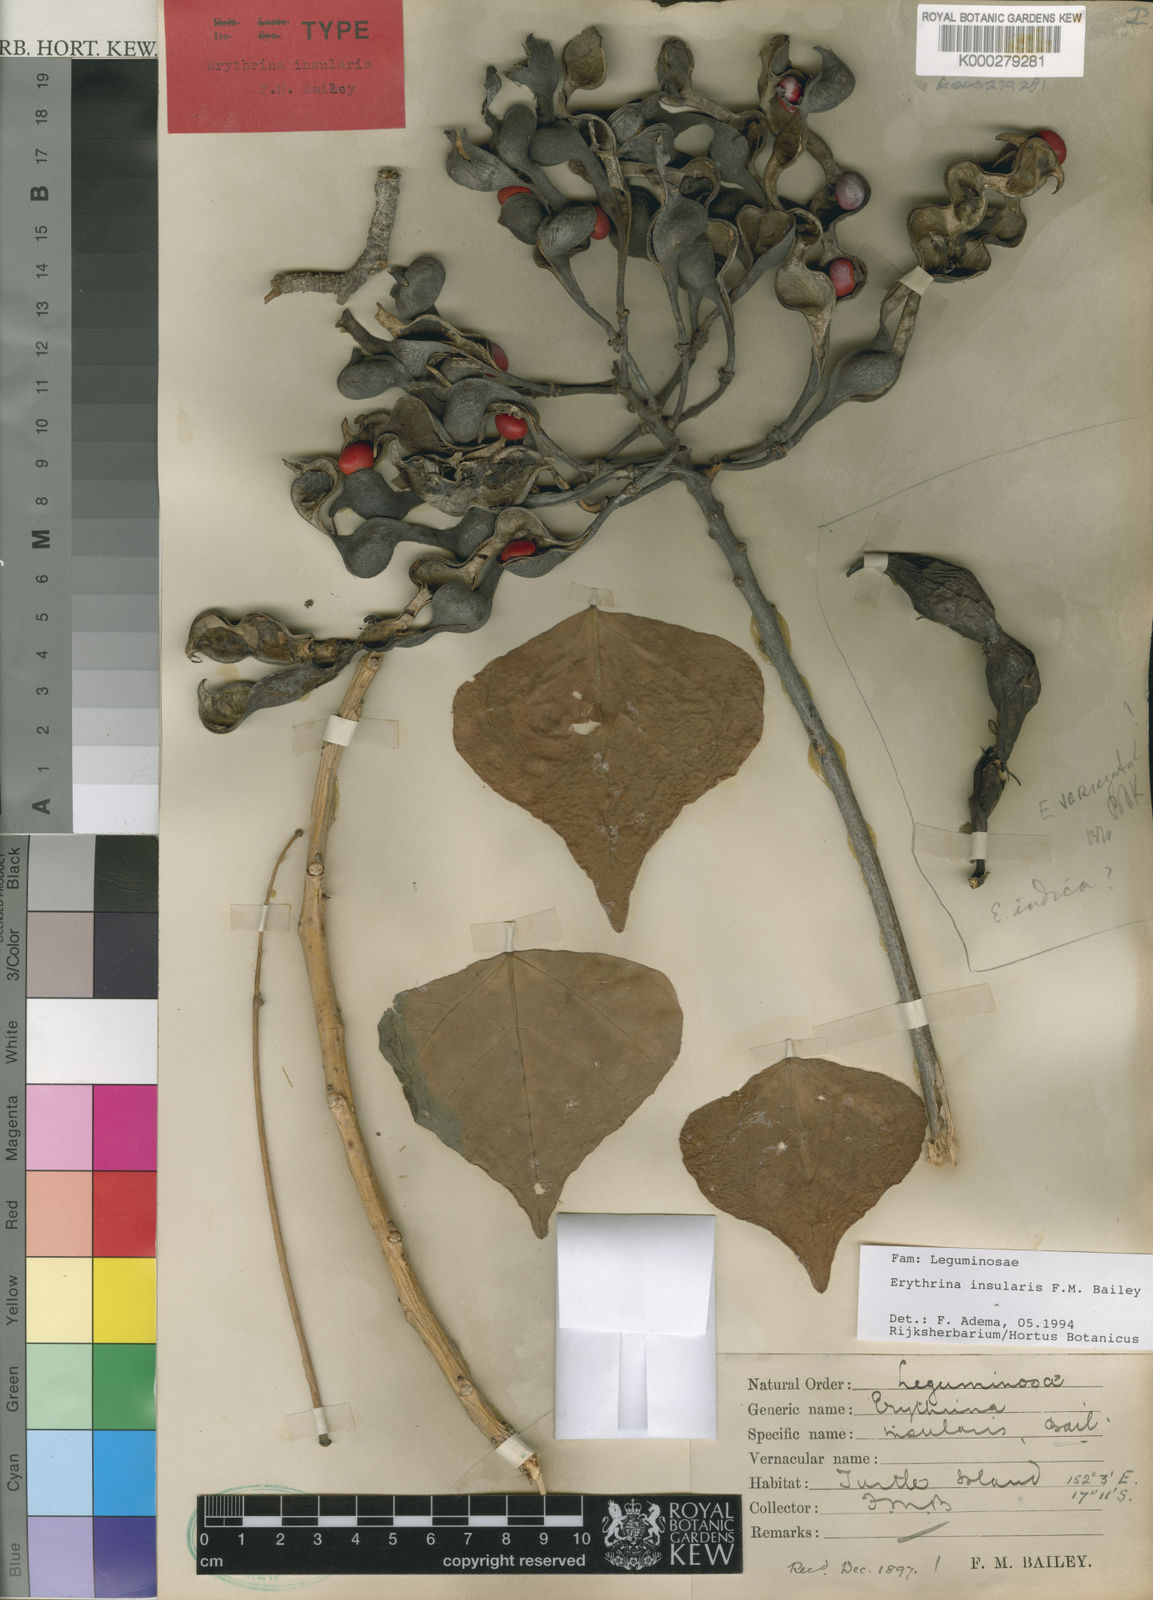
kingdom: Plantae
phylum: Tracheophyta
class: Magnoliopsida
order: Fabales
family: Fabaceae
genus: Erythrina
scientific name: Erythrina vespertilio
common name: Bat-wing coral tree
